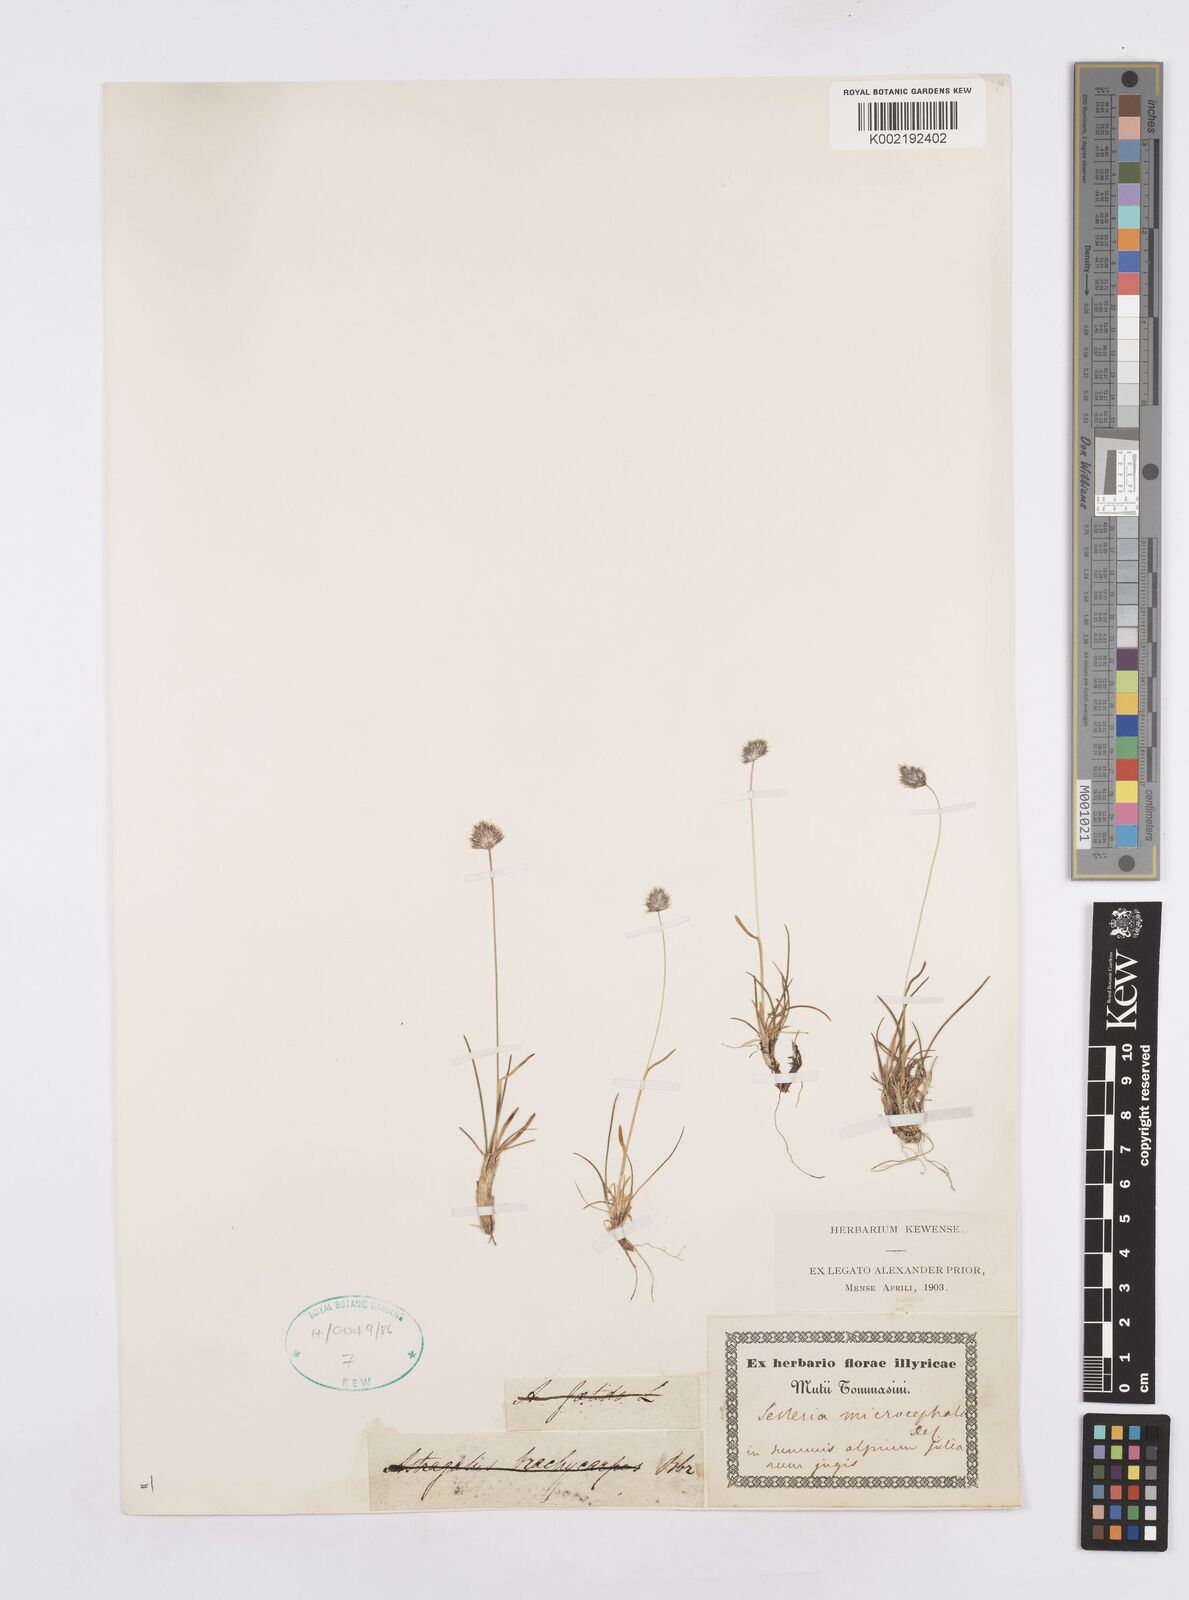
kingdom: Plantae
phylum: Tracheophyta
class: Liliopsida
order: Poales
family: Poaceae
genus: Psilathera
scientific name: Psilathera ovata
